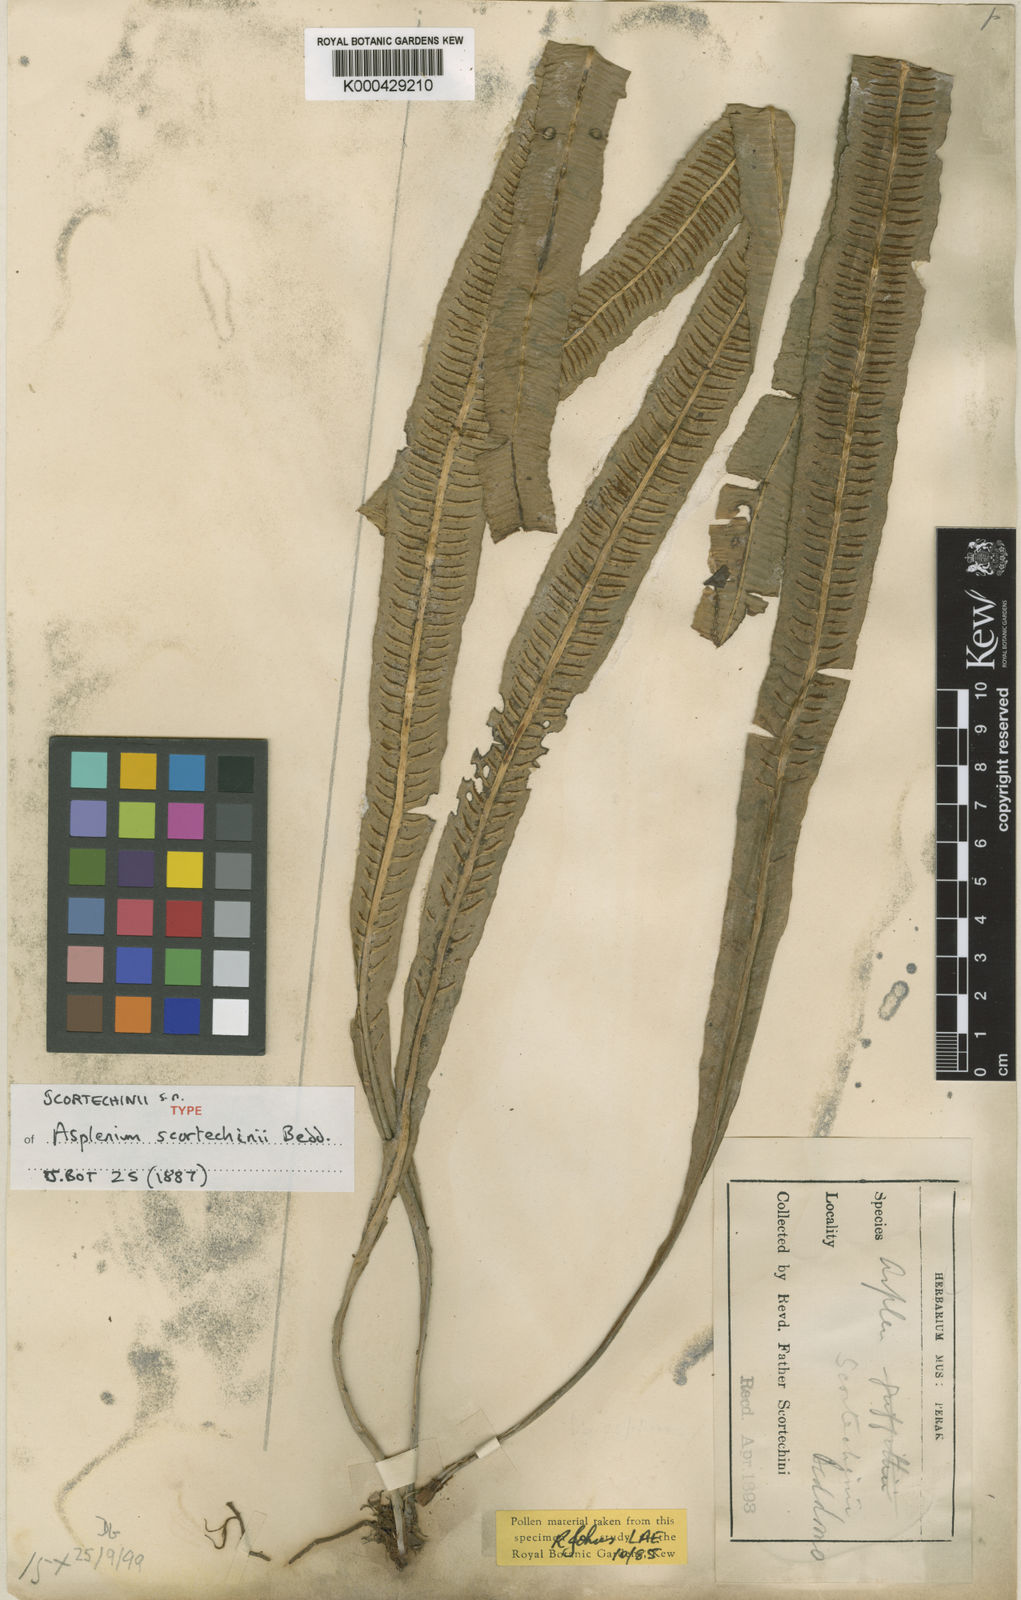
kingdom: Plantae
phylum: Tracheophyta
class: Polypodiopsida
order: Polypodiales
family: Aspleniaceae
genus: Asplenium
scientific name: Asplenium scortechinii
